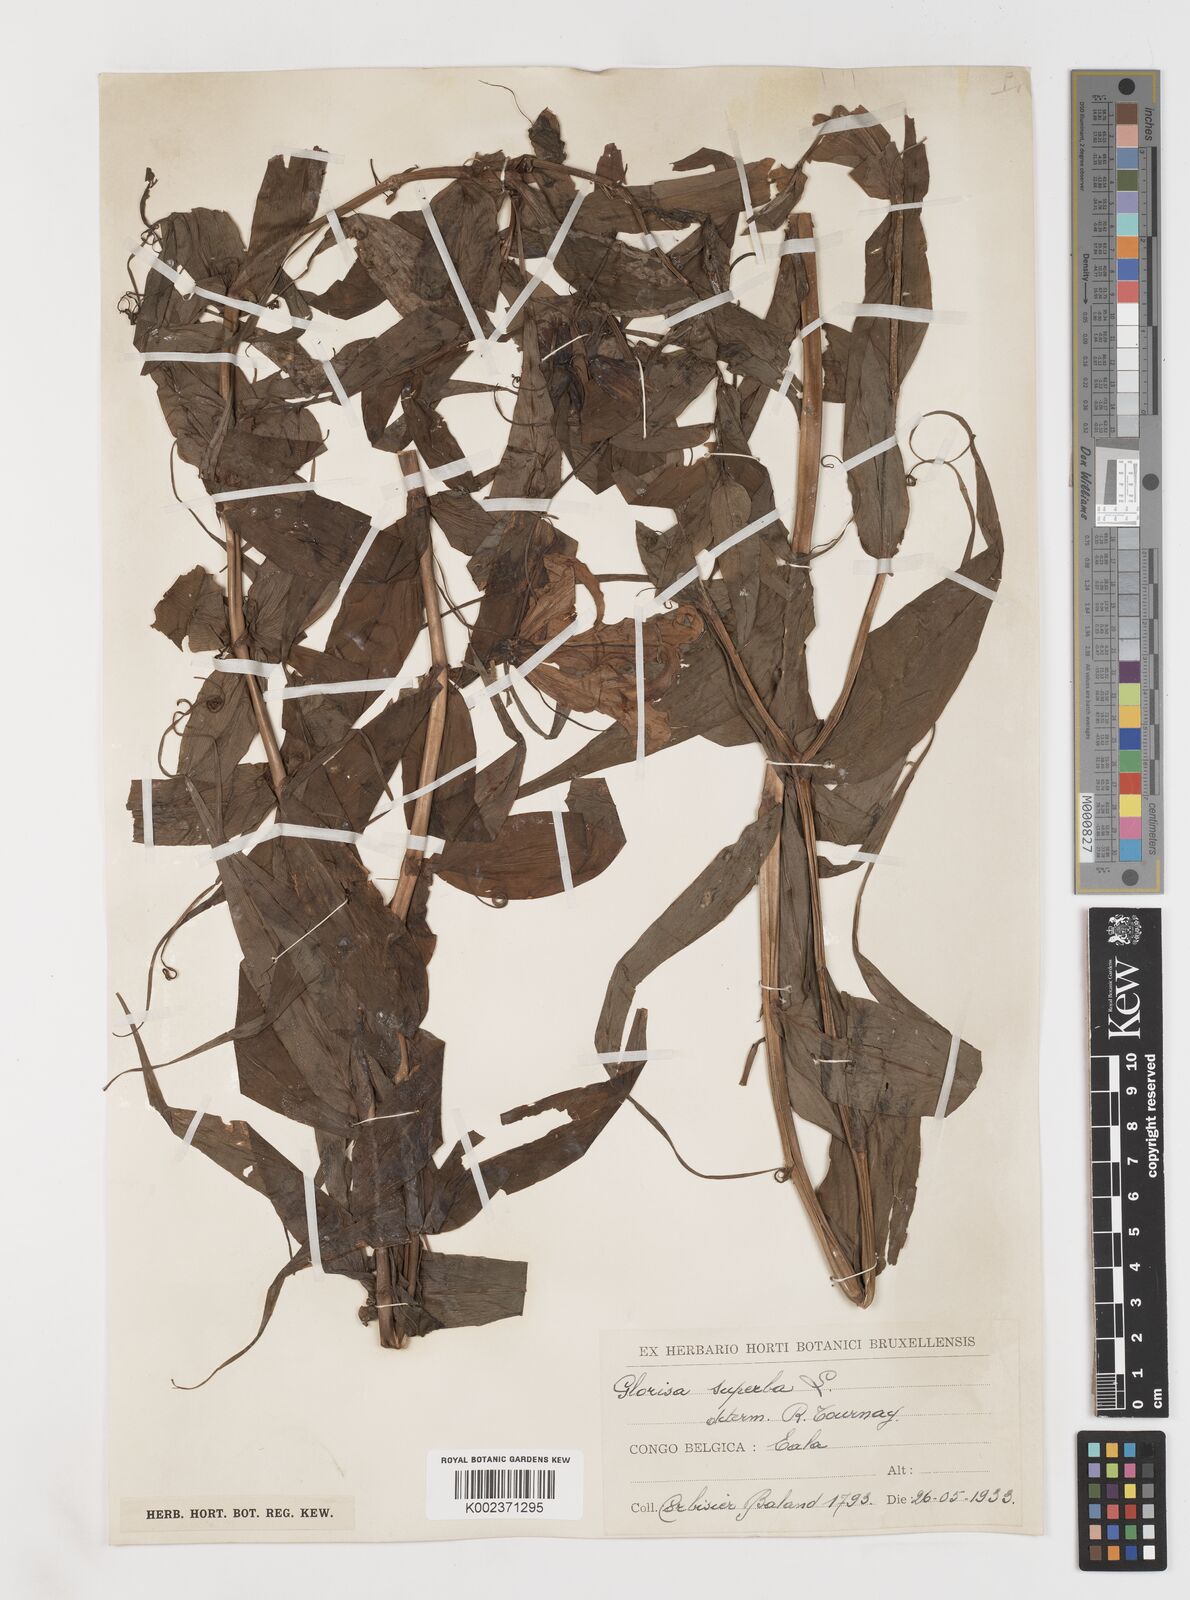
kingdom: Plantae
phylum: Tracheophyta
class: Liliopsida
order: Liliales
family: Colchicaceae
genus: Gloriosa
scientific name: Gloriosa simplex
